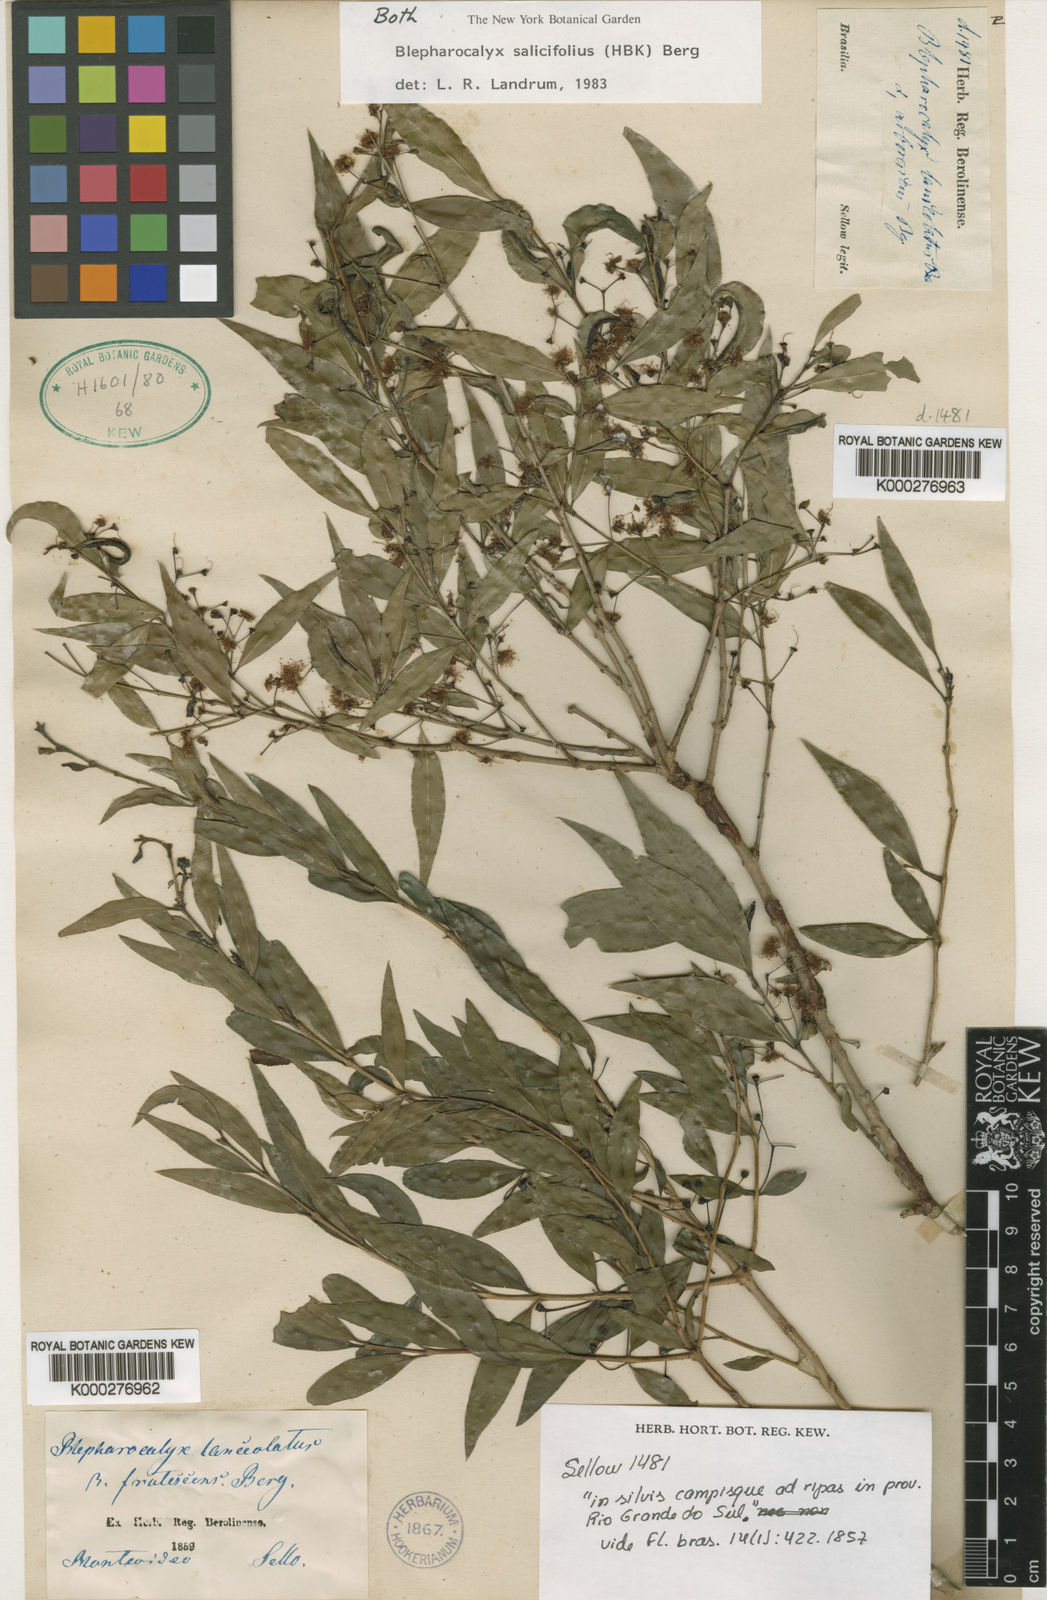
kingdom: Plantae
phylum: Tracheophyta
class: Magnoliopsida
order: Myrtales
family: Myrtaceae
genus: Blepharocalyx
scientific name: Blepharocalyx salicifolius
